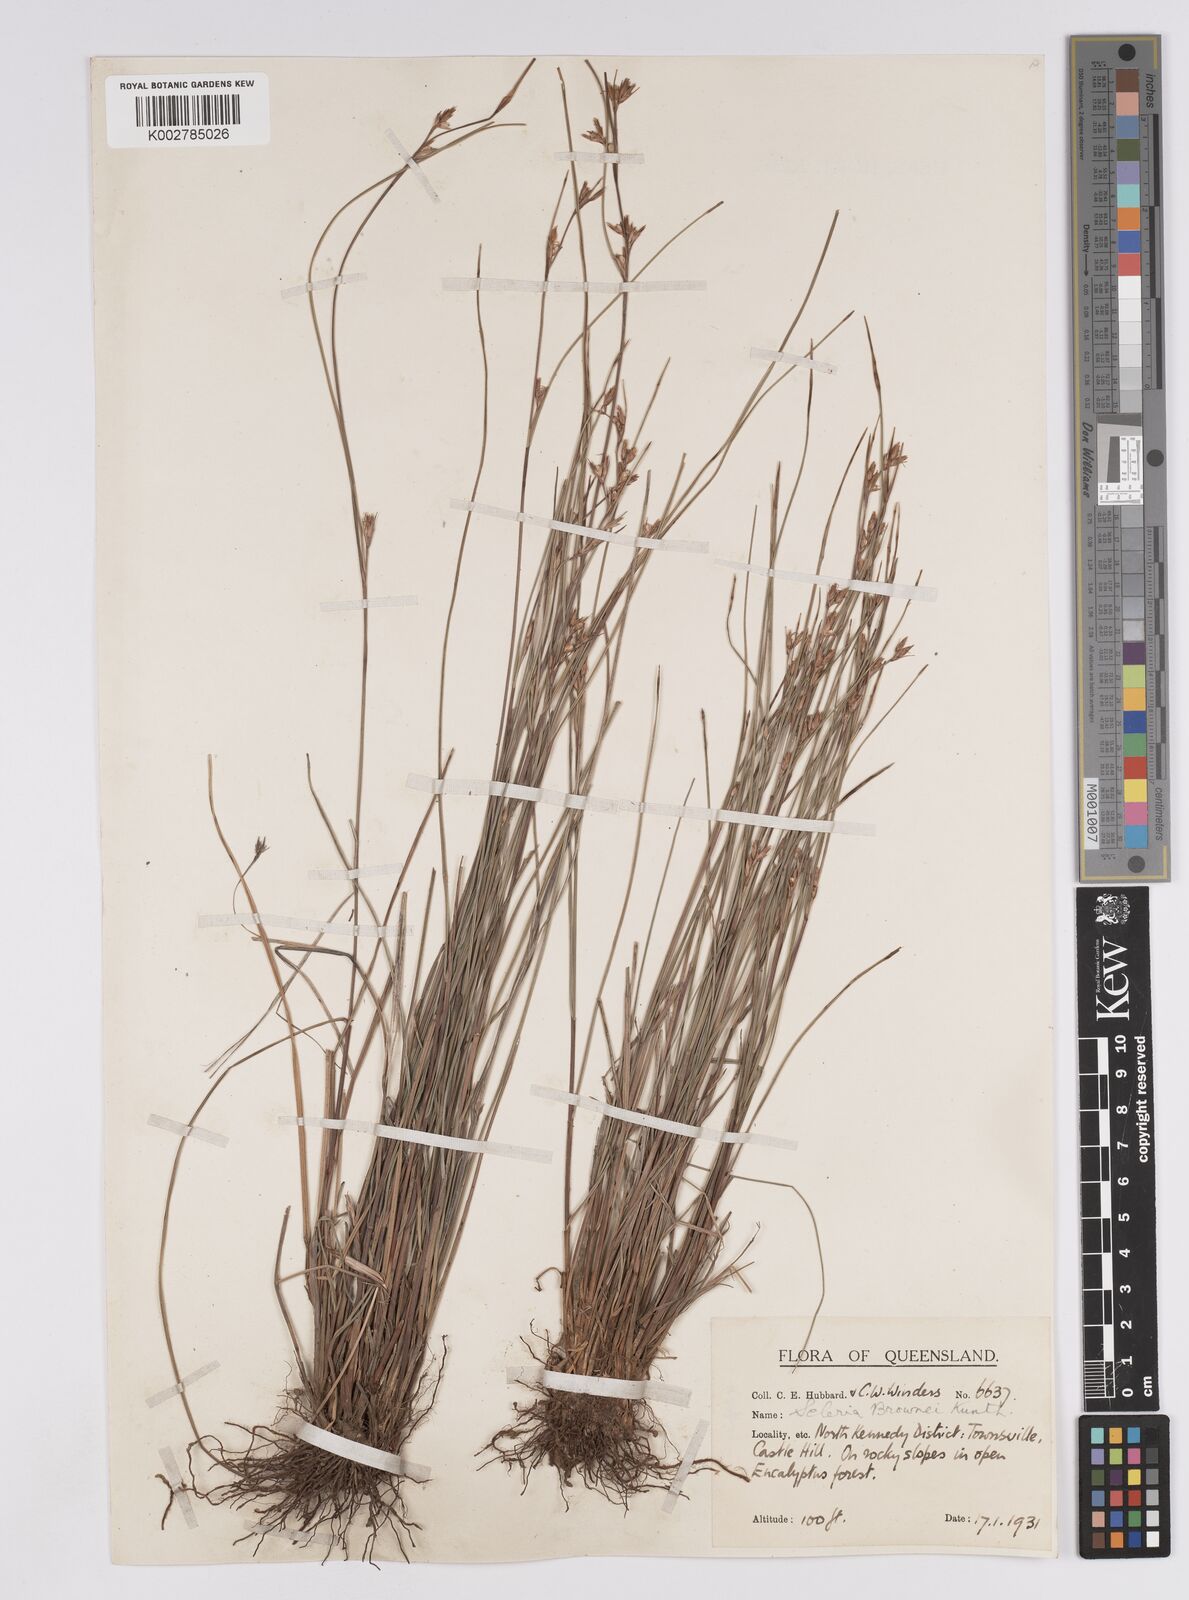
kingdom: Plantae
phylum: Tracheophyta
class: Liliopsida
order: Poales
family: Cyperaceae
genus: Scleria
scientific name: Scleria brownii
